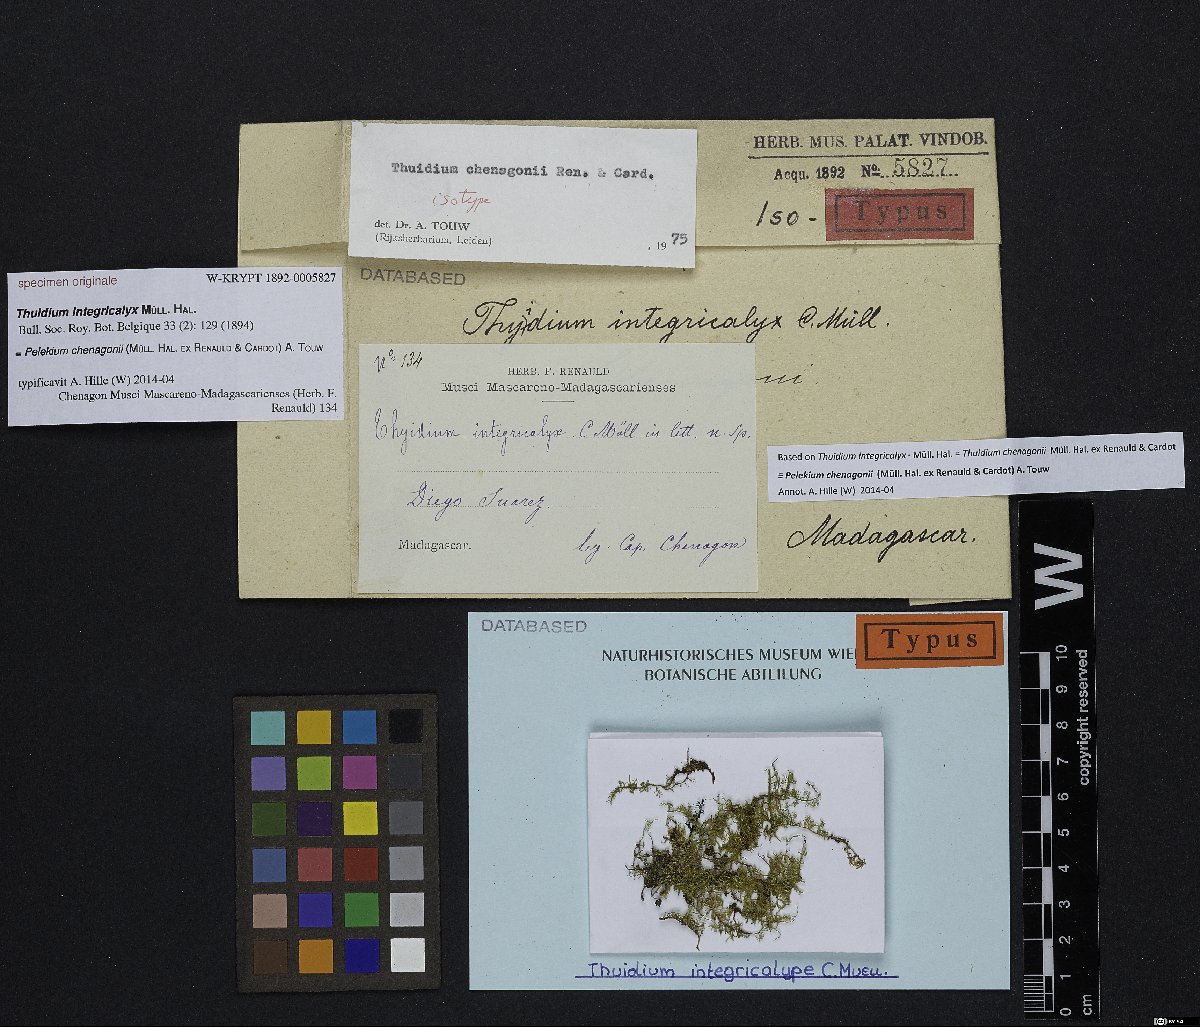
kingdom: Plantae
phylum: Bryophyta
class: Bryopsida
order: Hypnales
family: Thuidiaceae
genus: Pelekium
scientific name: Pelekium chenagonii
